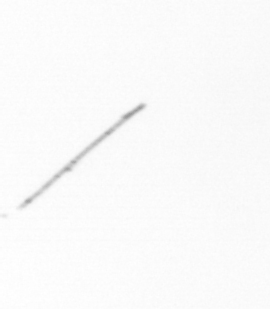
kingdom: Chromista
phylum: Ochrophyta
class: Bacillariophyceae
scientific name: Bacillariophyceae
